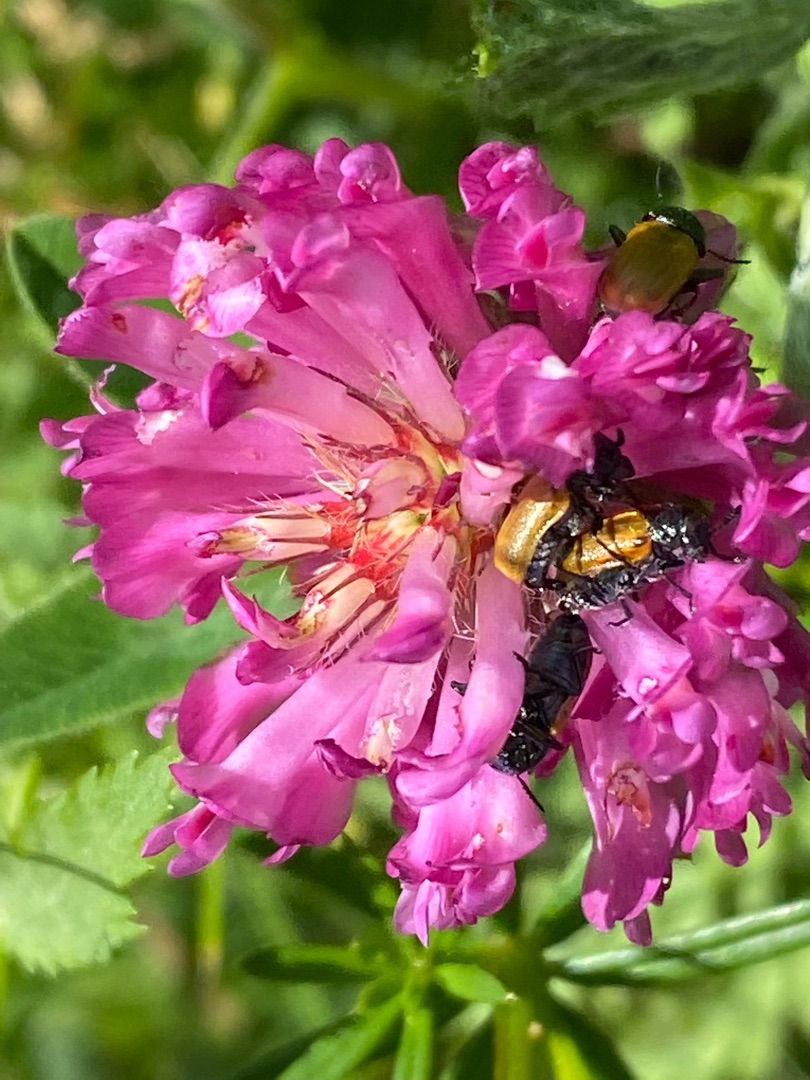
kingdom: Animalia
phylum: Arthropoda
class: Insecta
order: Coleoptera
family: Chrysomelidae
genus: Labidostomis
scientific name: Labidostomis longimana
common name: Lille langben
